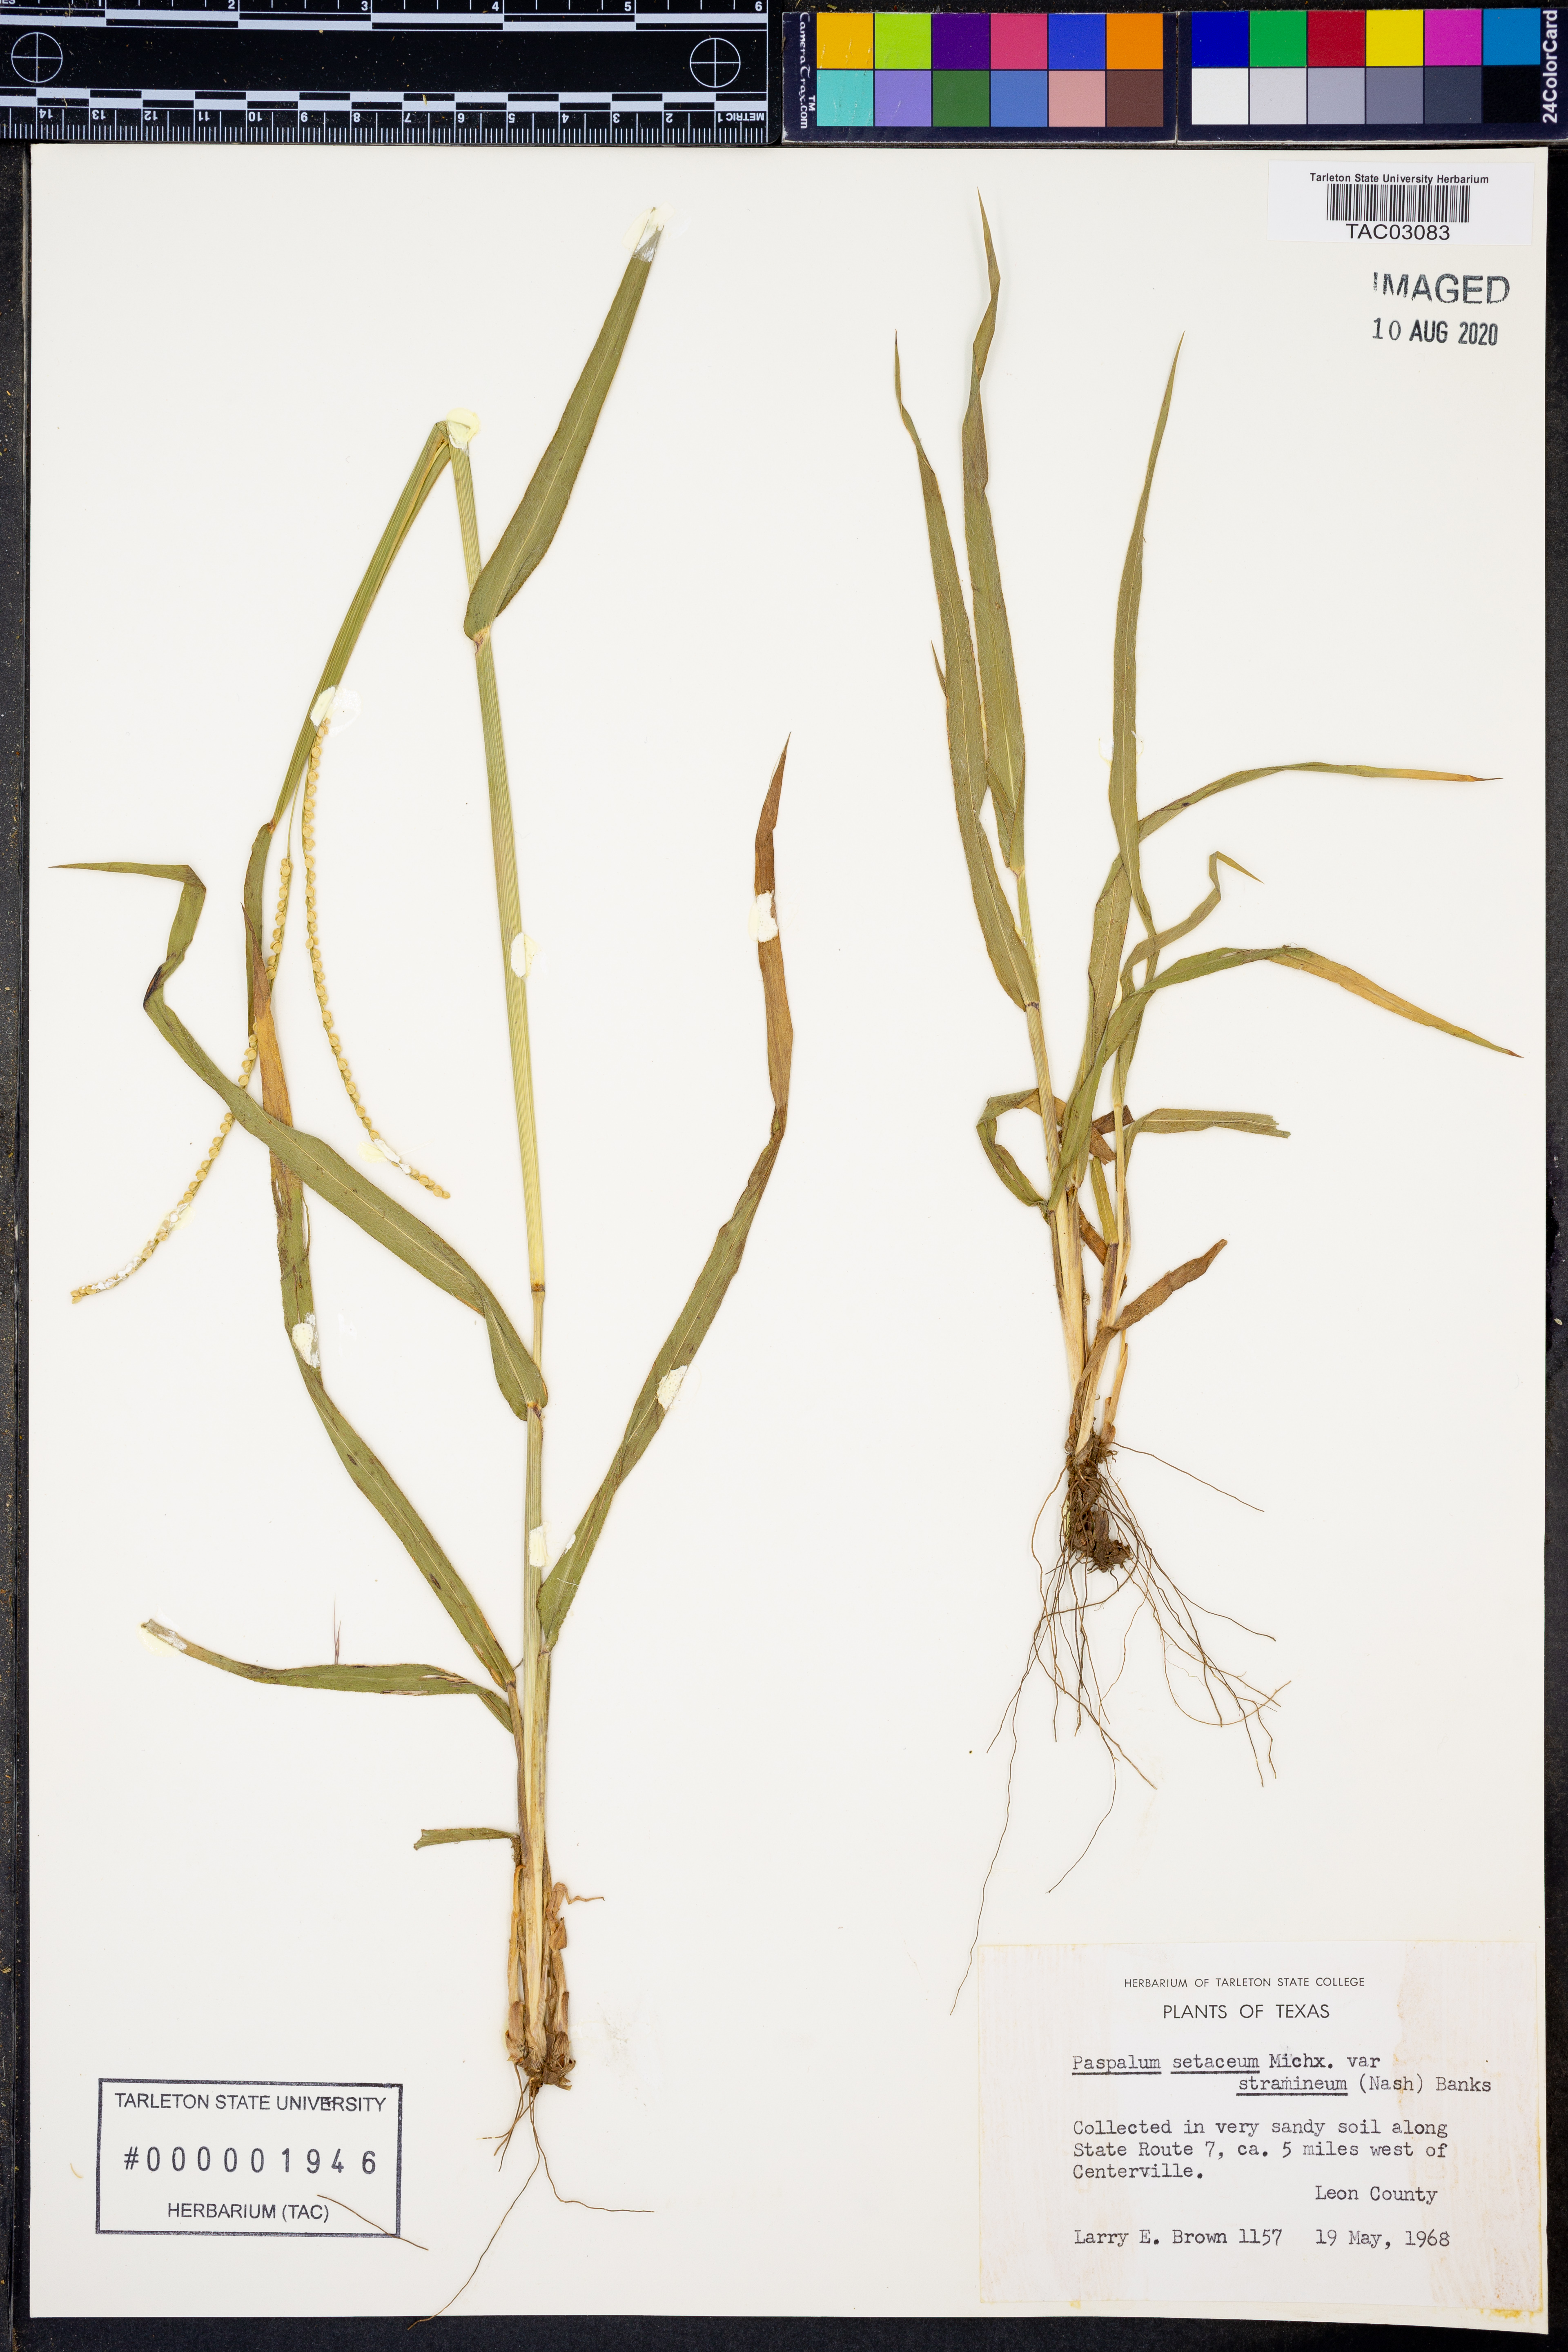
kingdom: Plantae
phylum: Tracheophyta
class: Liliopsida
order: Poales
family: Poaceae
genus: Paspalum
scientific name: Paspalum setaceum
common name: Slender paspalum
